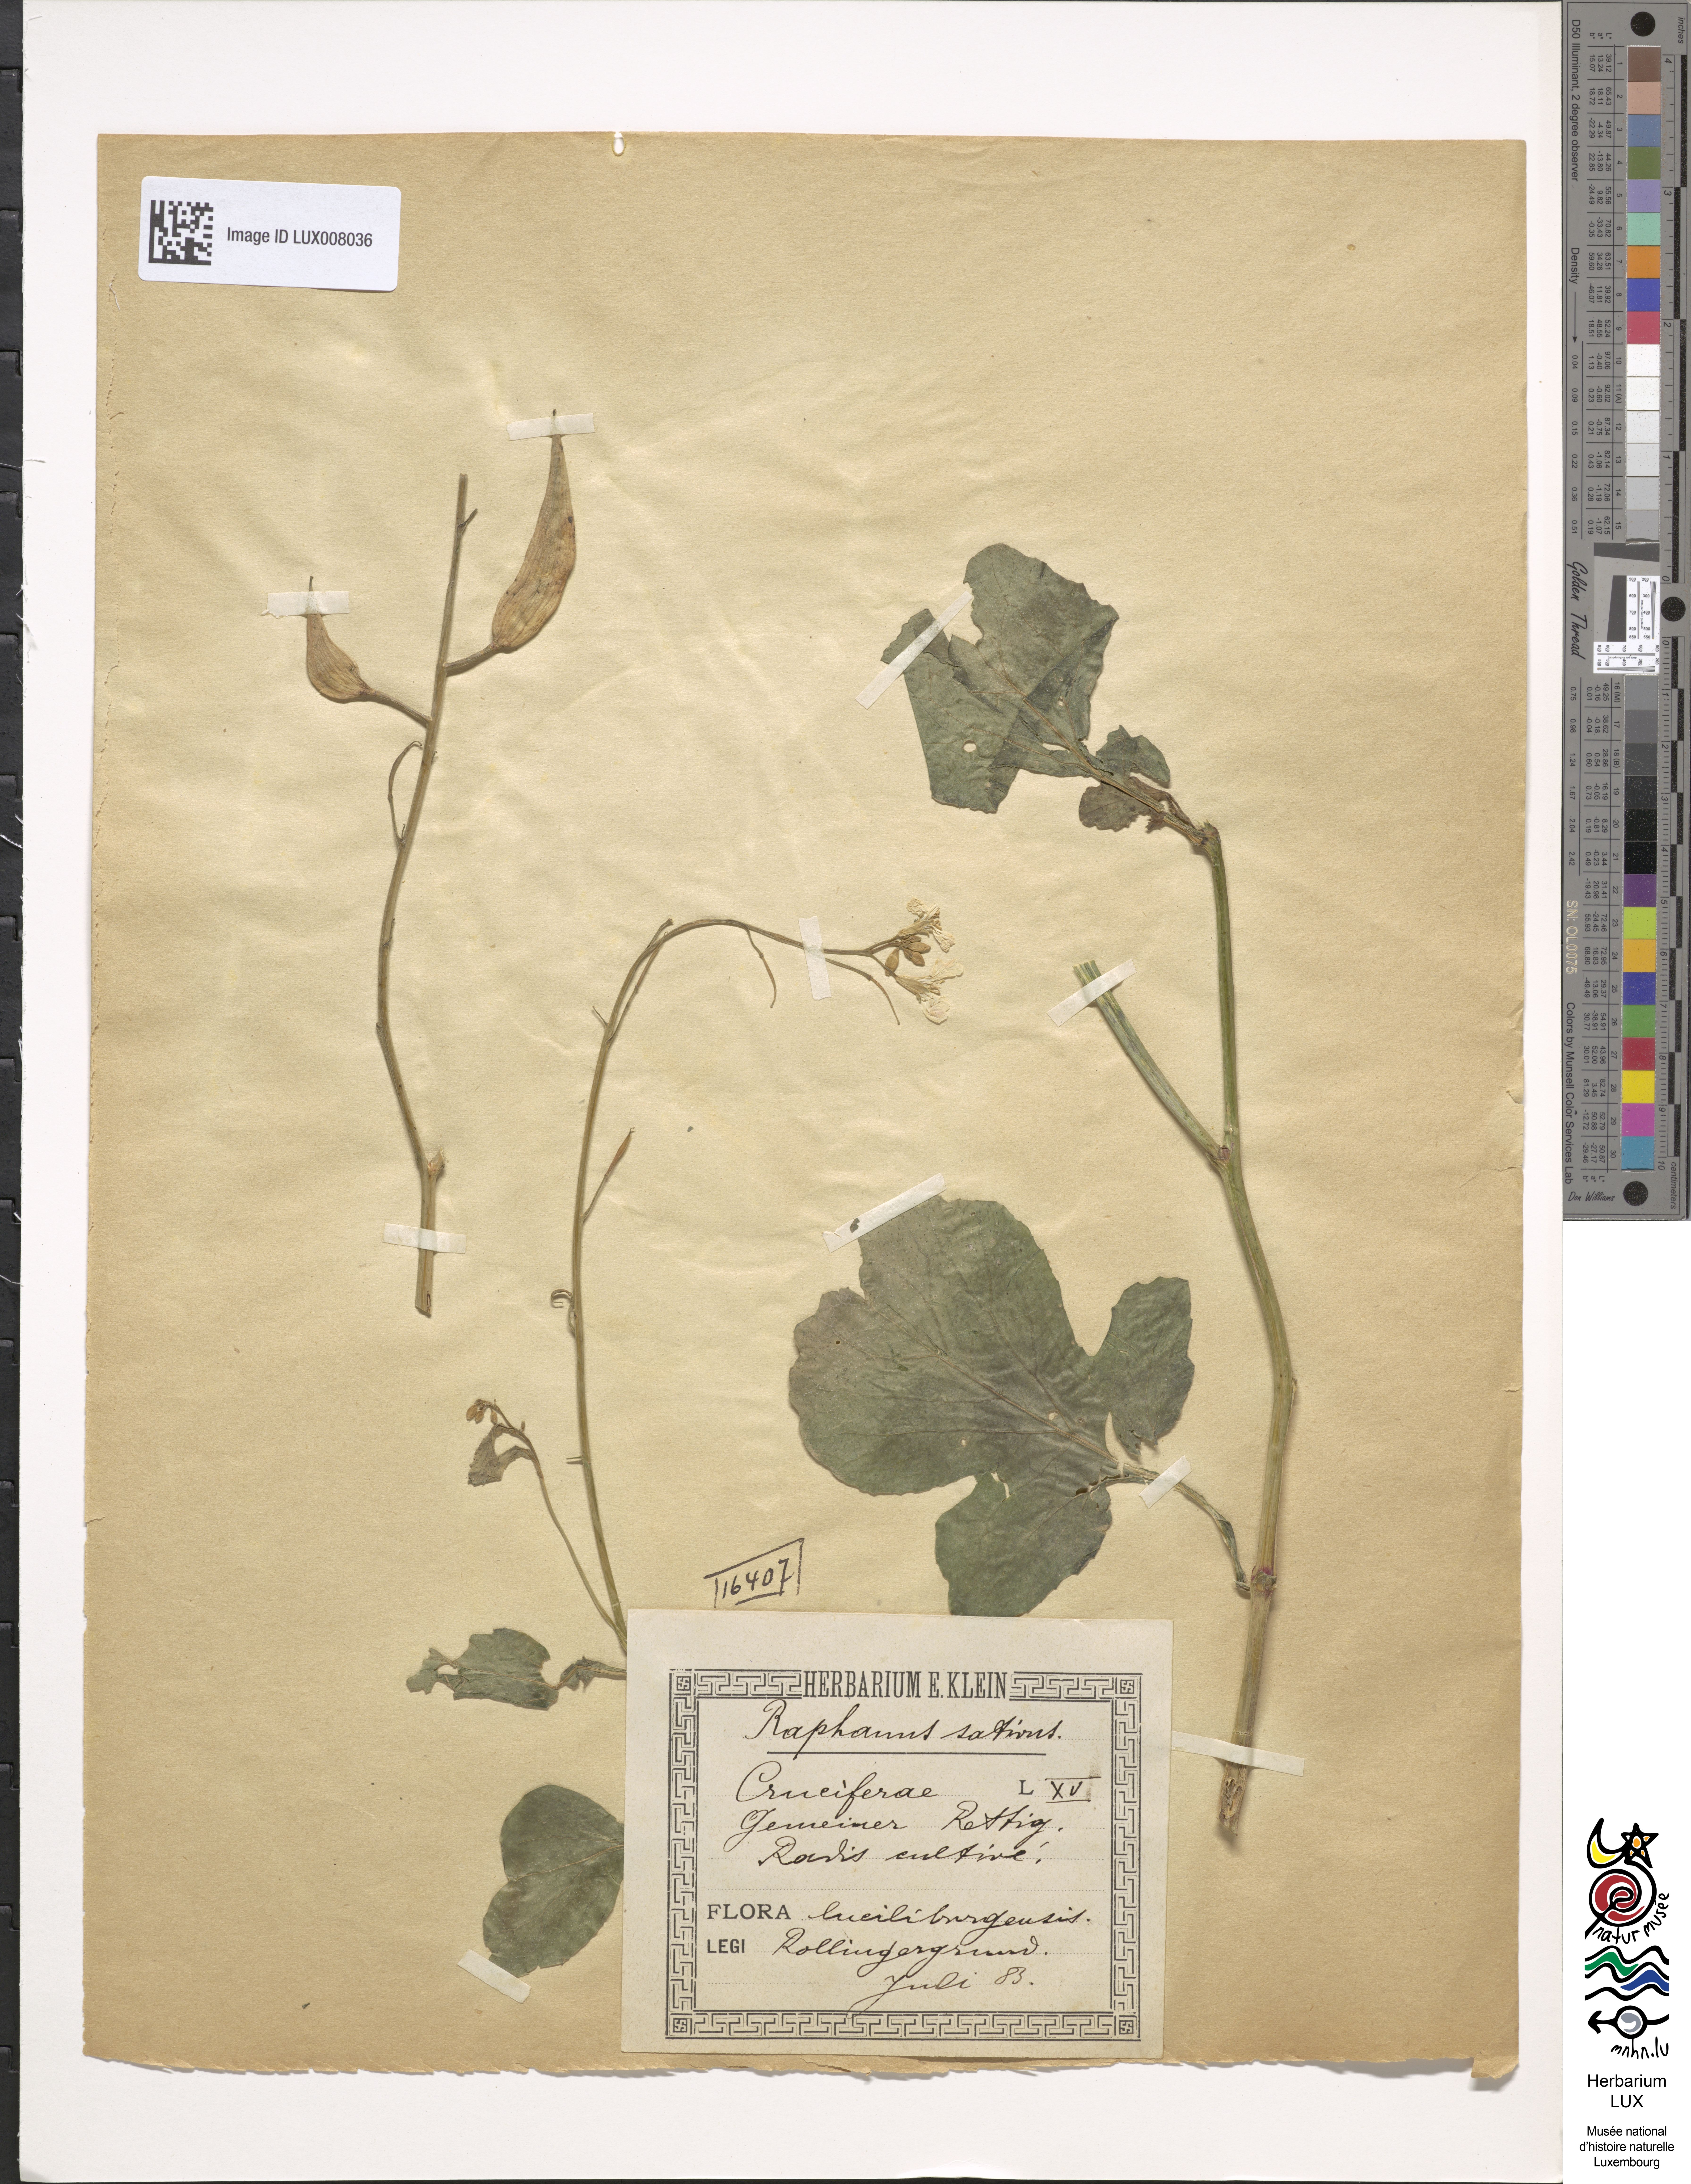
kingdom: Plantae
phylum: Tracheophyta
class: Magnoliopsida
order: Brassicales
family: Brassicaceae
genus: Raphanus
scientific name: Raphanus sativus
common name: Cultivated radish
